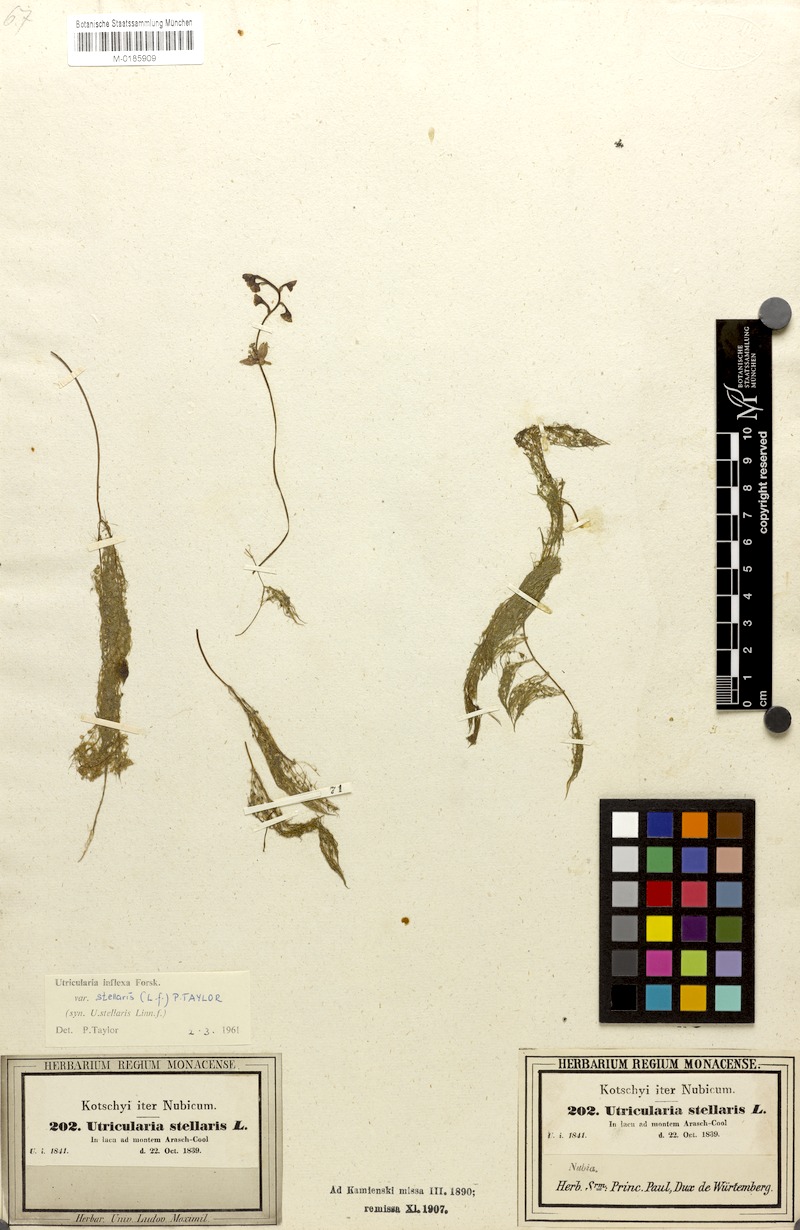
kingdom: Plantae
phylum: Tracheophyta
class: Magnoliopsida
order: Lamiales
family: Lentibulariaceae
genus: Utricularia
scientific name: Utricularia stellaris
